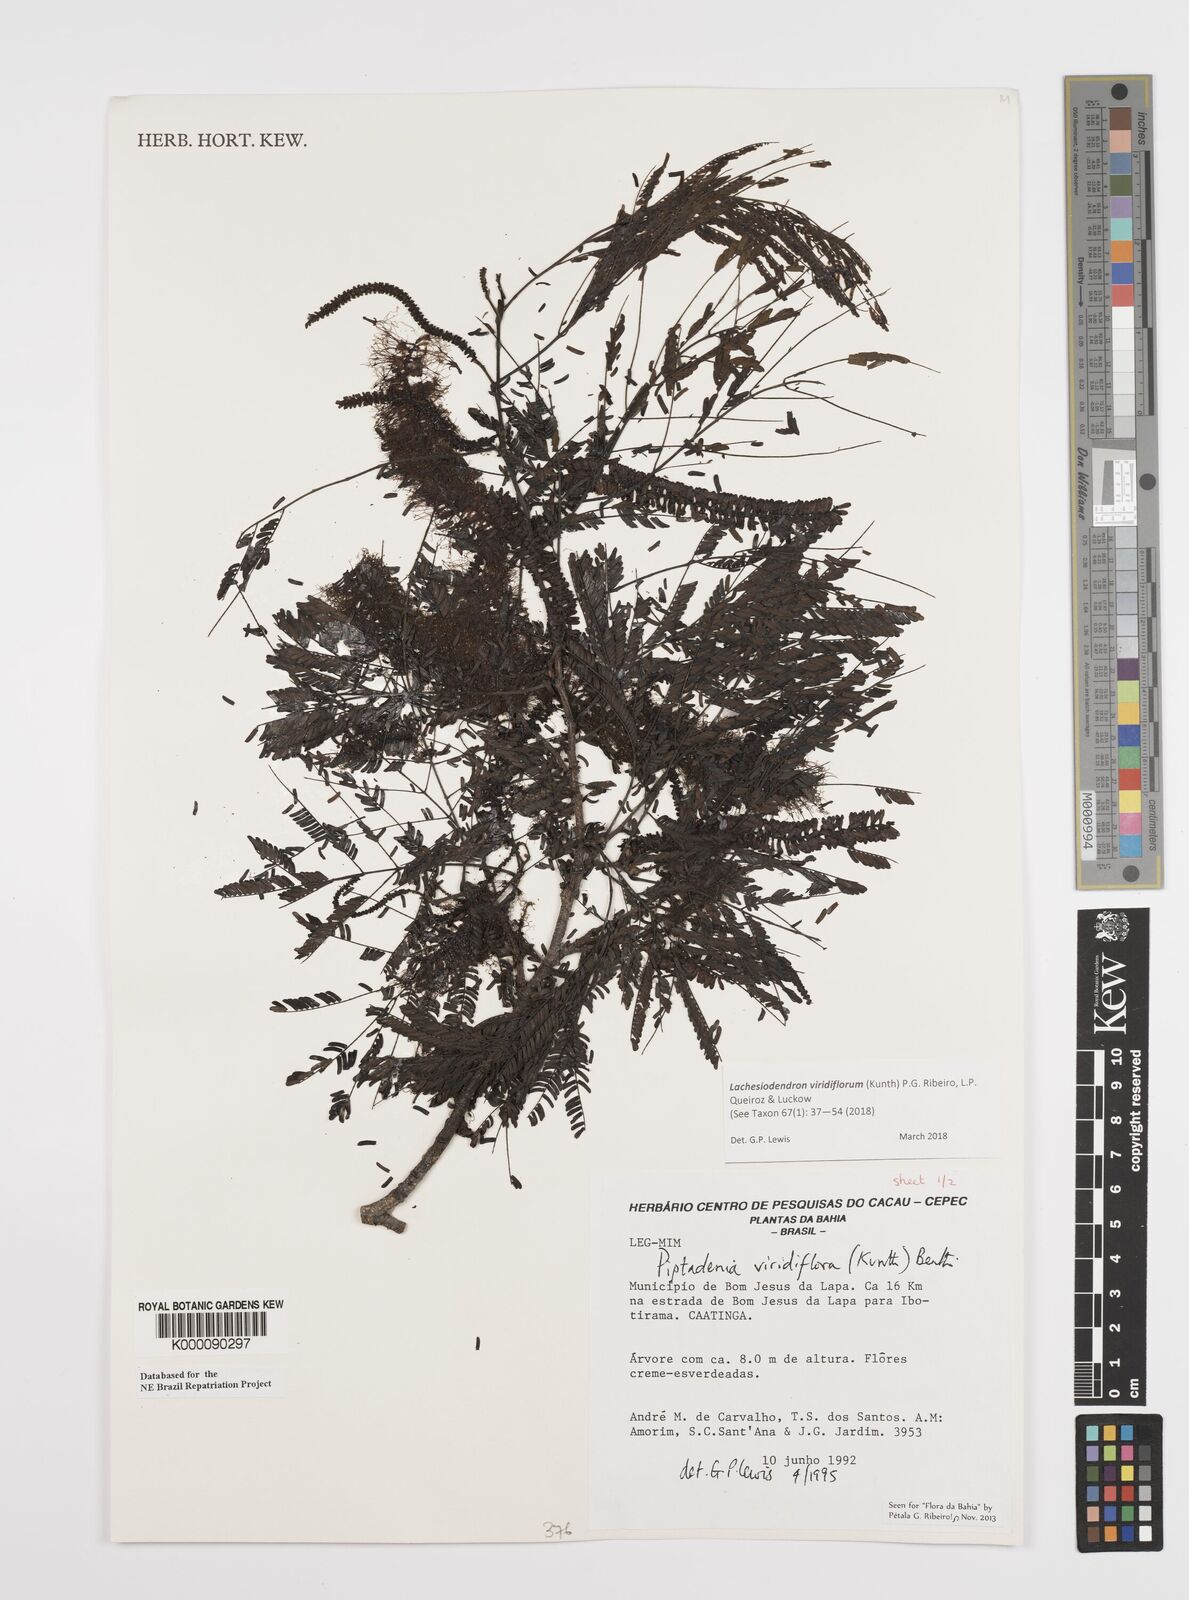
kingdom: Plantae
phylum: Tracheophyta
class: Magnoliopsida
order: Fabales
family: Fabaceae
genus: Lachesiodendron
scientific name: Lachesiodendron viridiflorum
